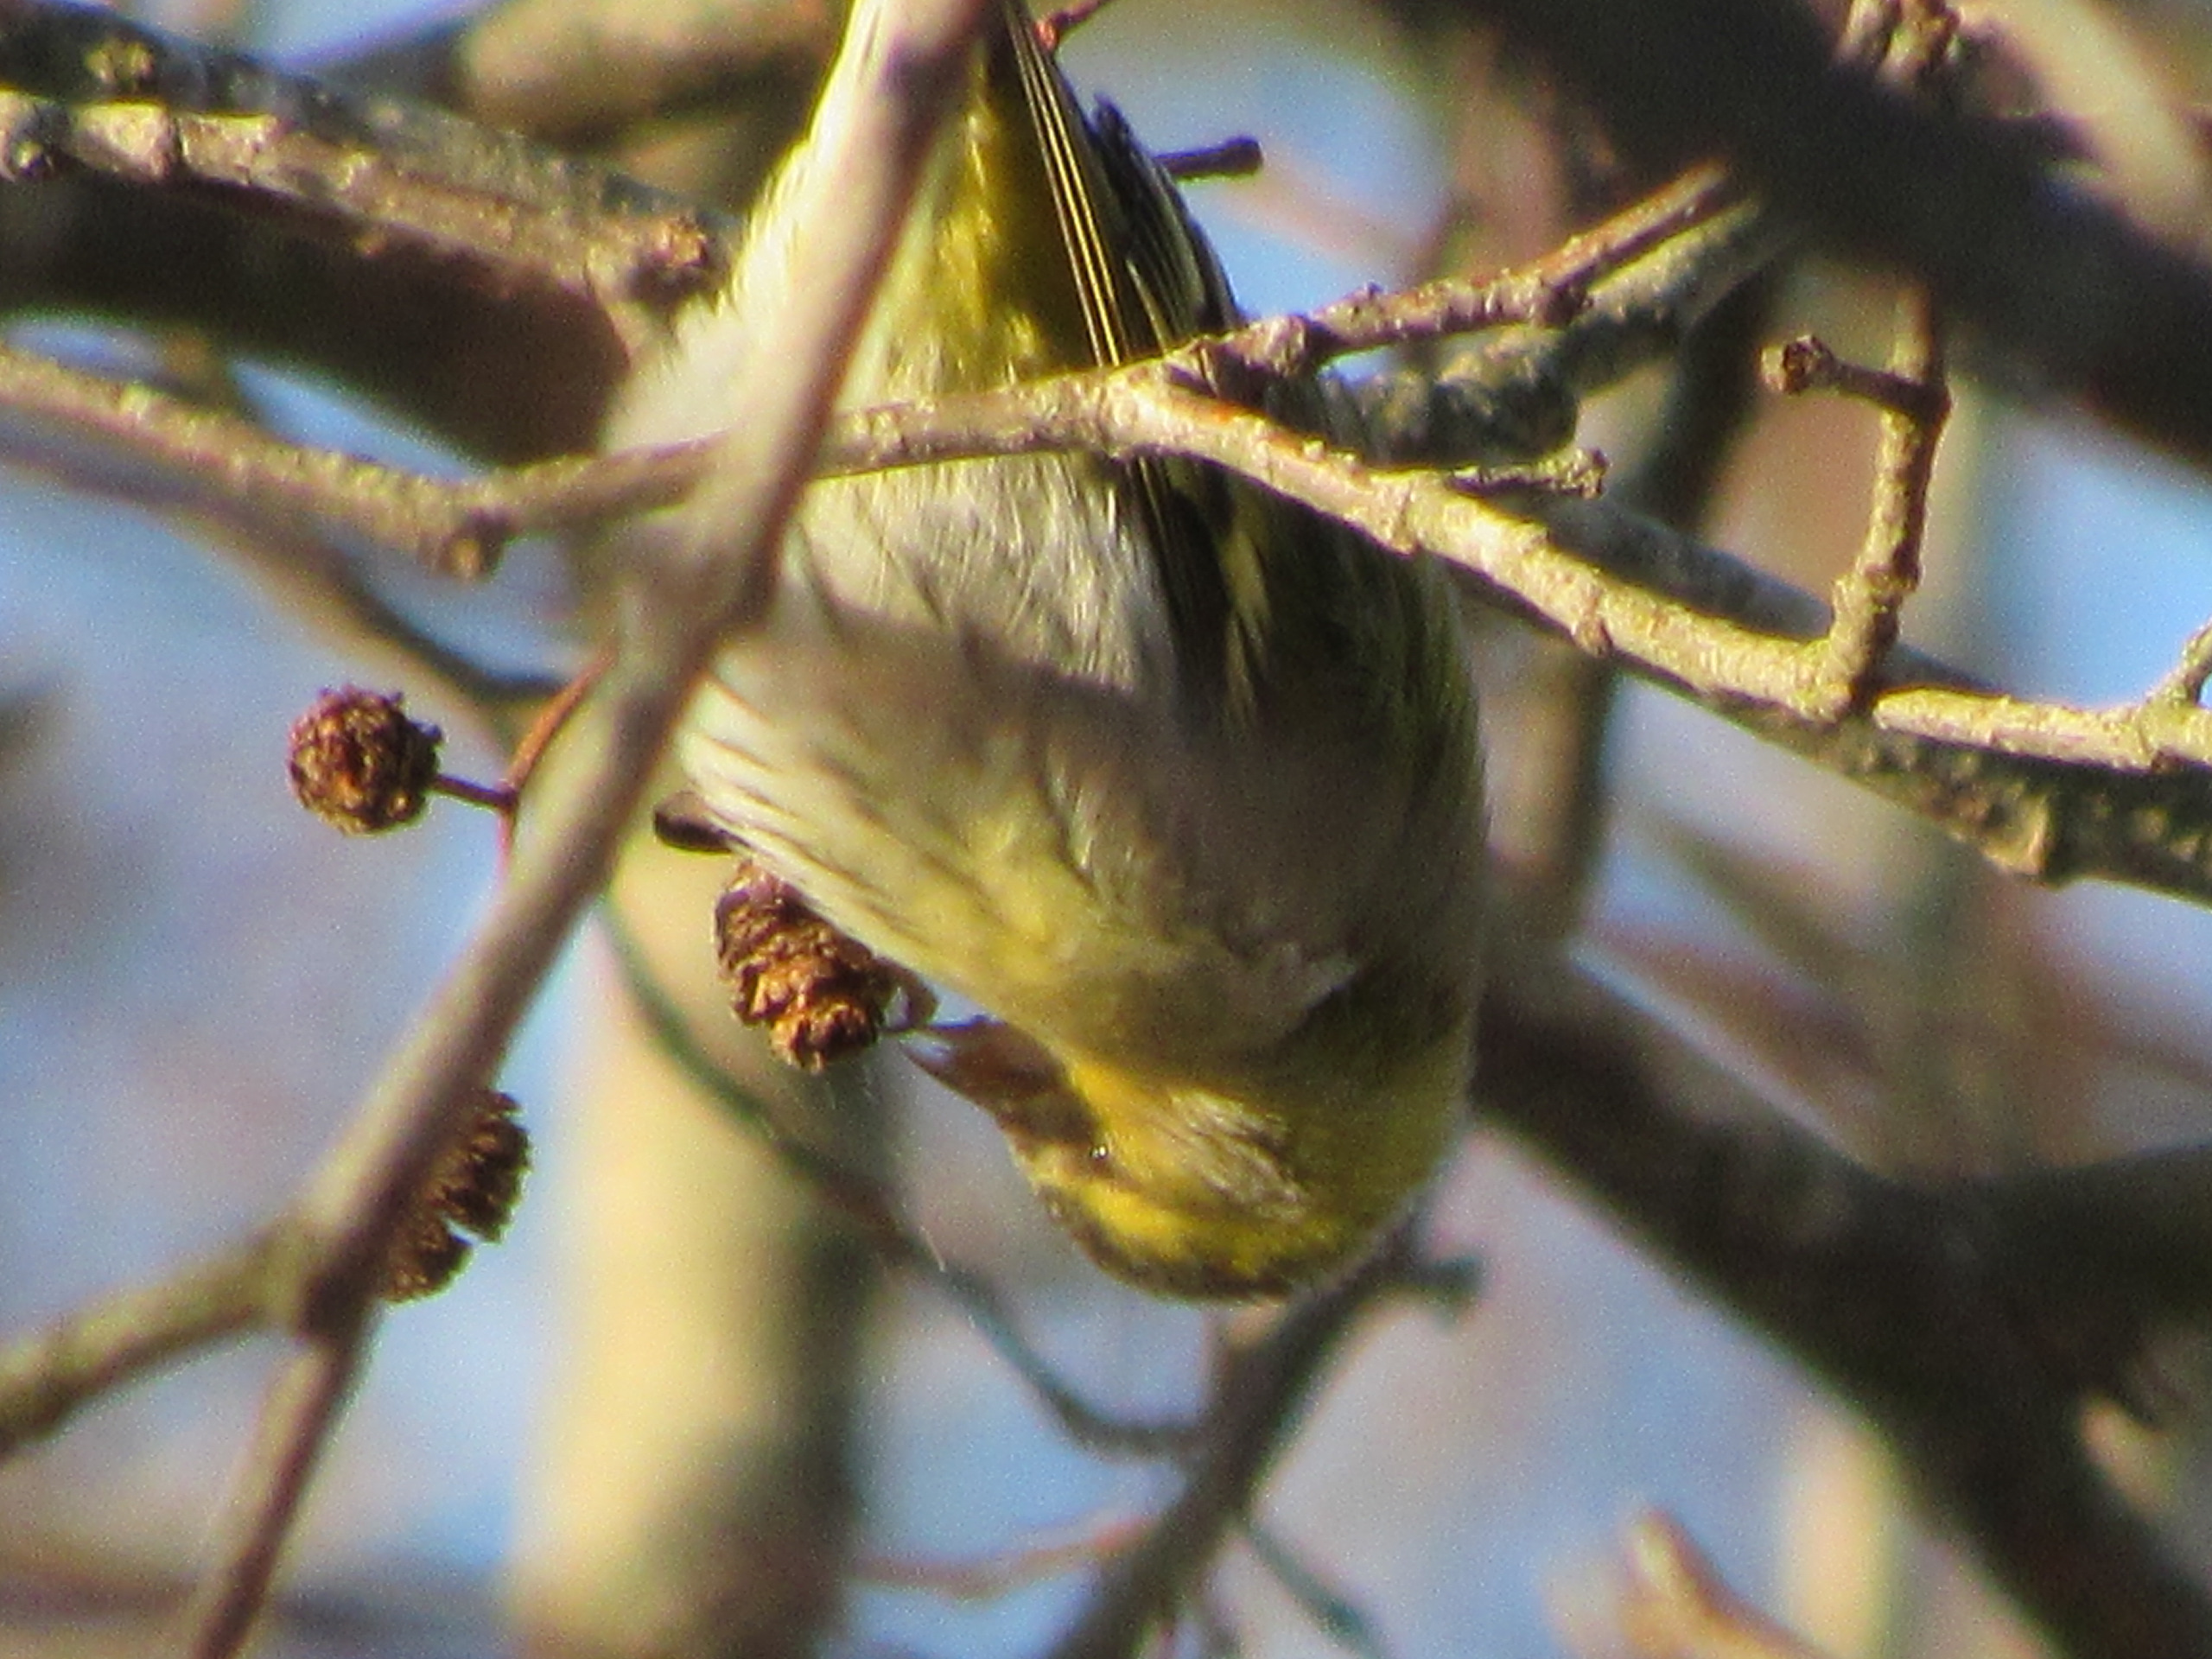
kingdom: Animalia
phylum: Chordata
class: Aves
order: Passeriformes
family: Fringillidae
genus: Spinus
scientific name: Spinus spinus
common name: Grønsisken
